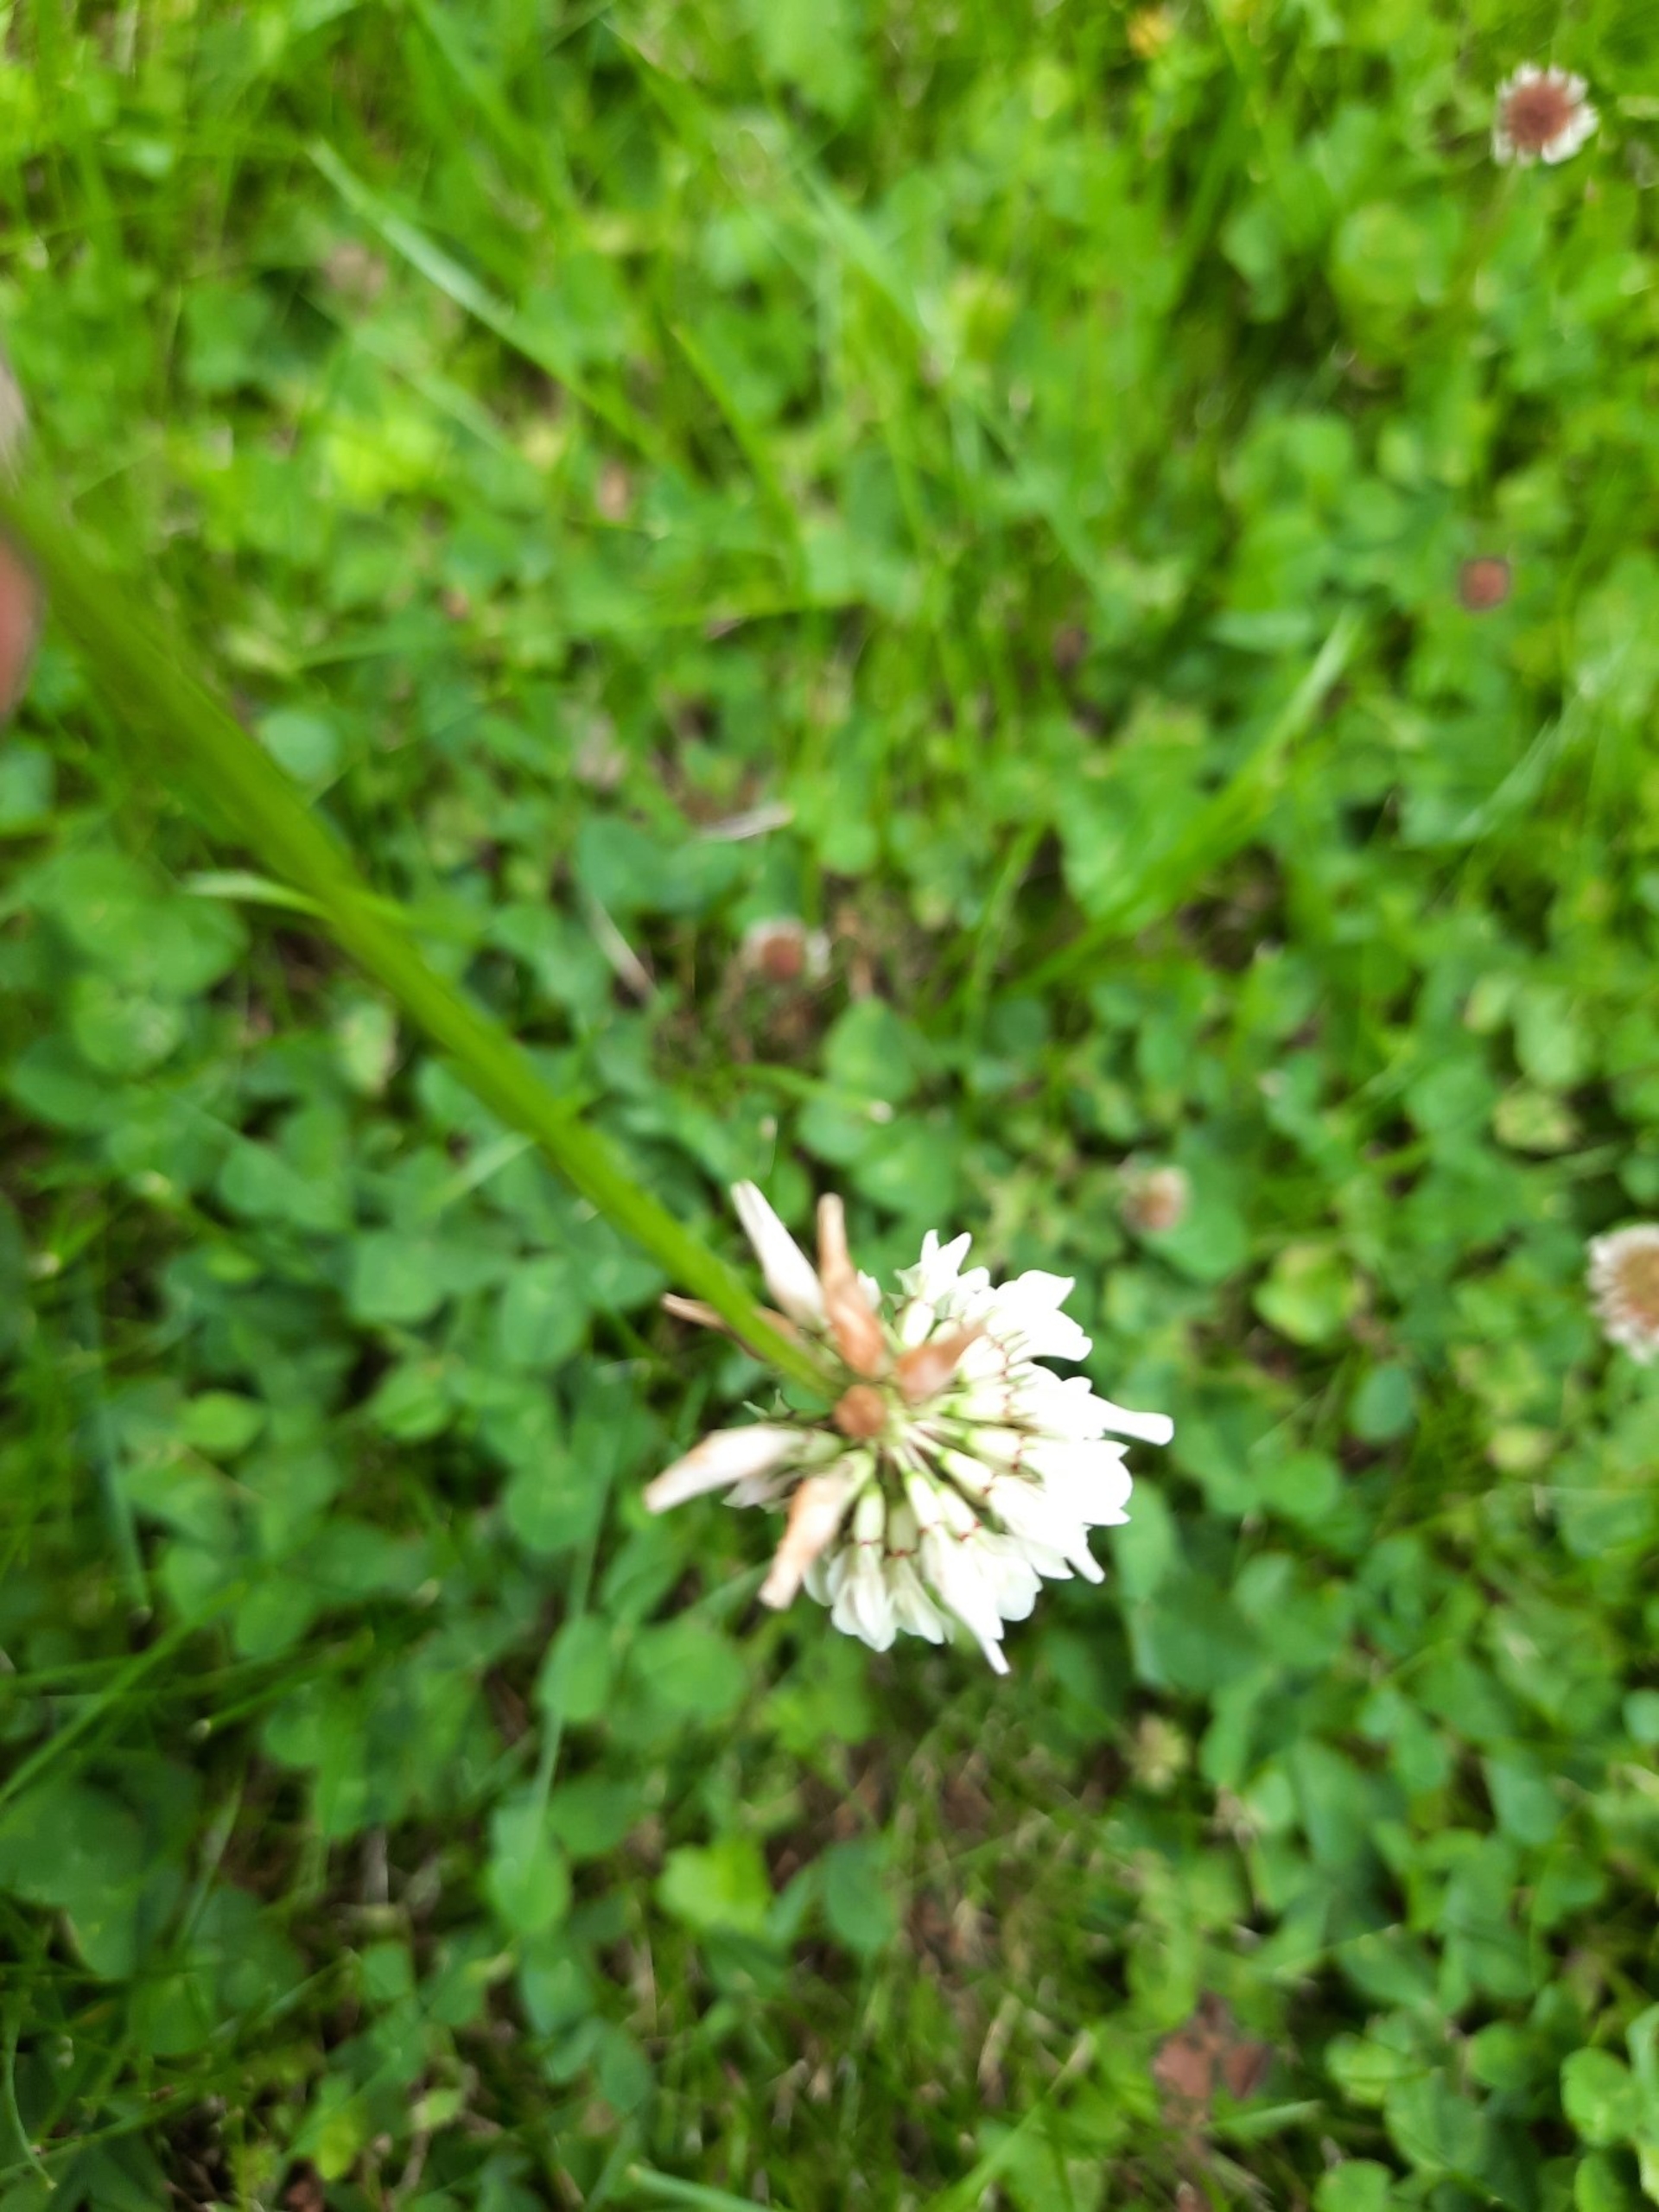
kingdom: Plantae
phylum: Tracheophyta
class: Magnoliopsida
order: Fabales
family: Fabaceae
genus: Trifolium
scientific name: Trifolium repens
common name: Hvid-kløver
